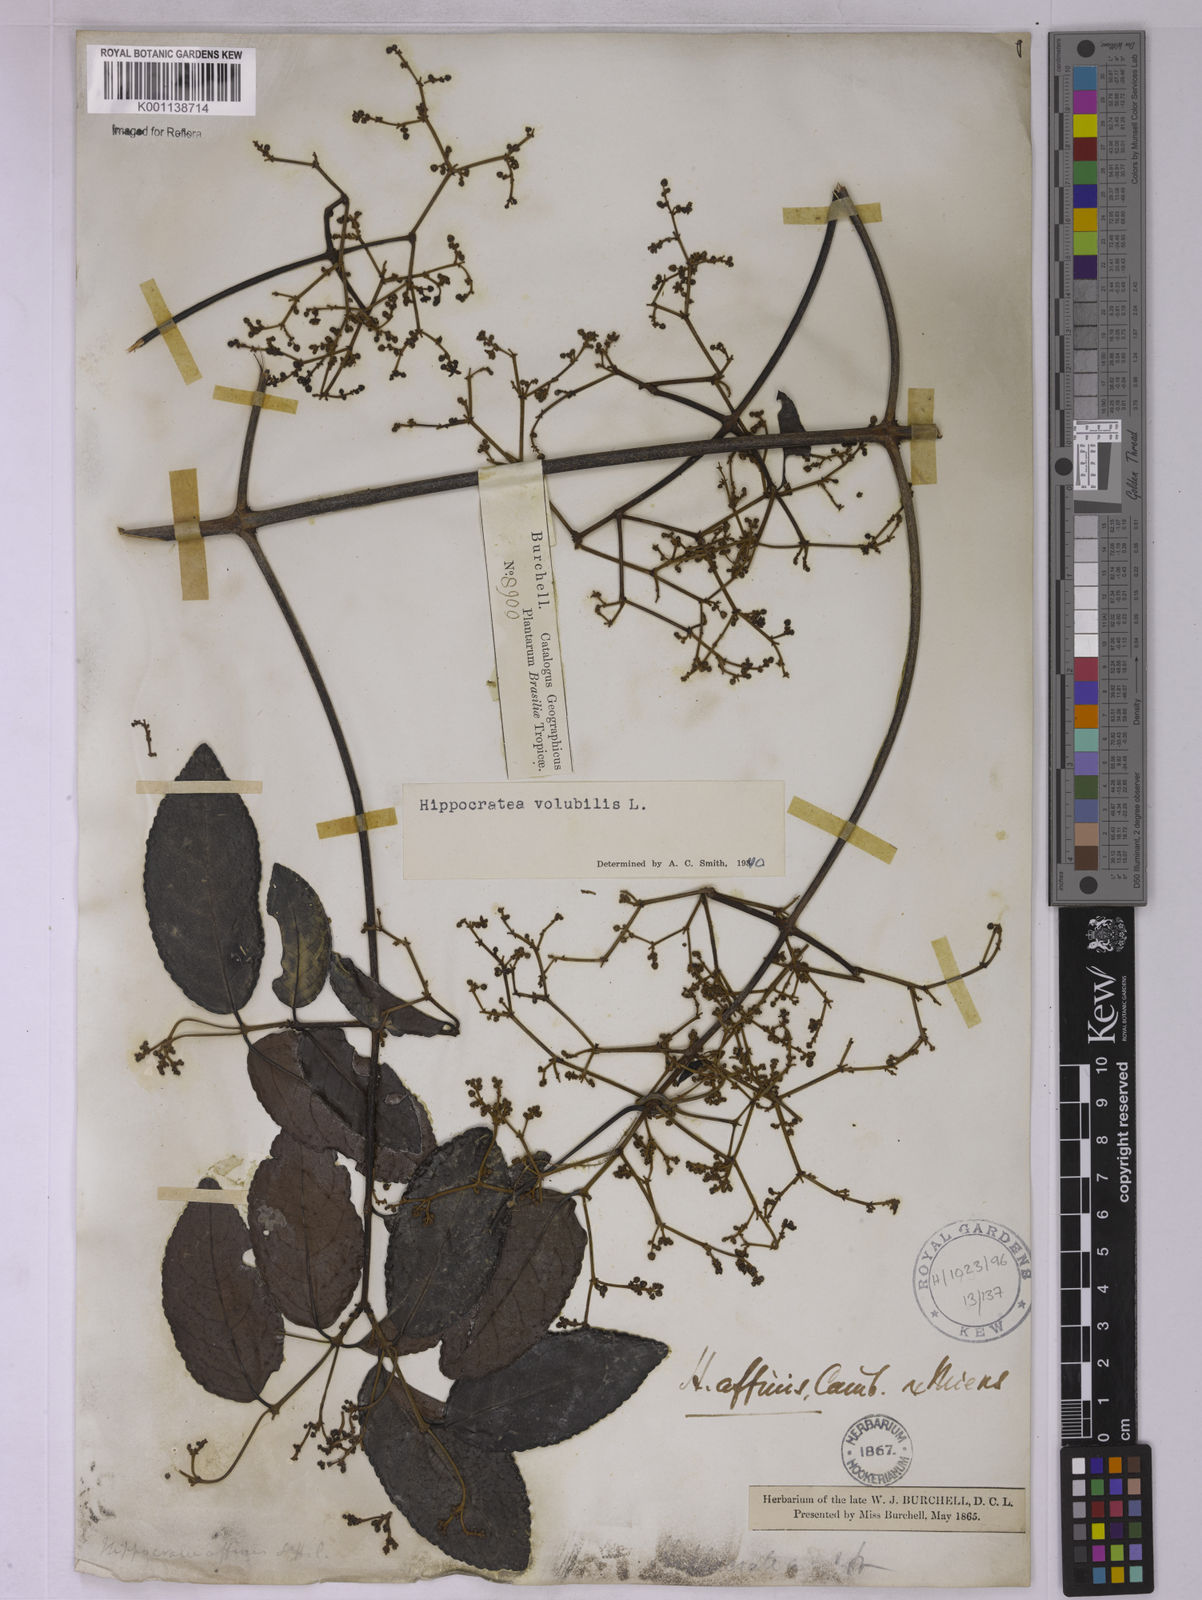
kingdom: Plantae
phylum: Tracheophyta
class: Magnoliopsida
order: Celastrales
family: Celastraceae
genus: Hippocratea
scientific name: Hippocratea volubilis
